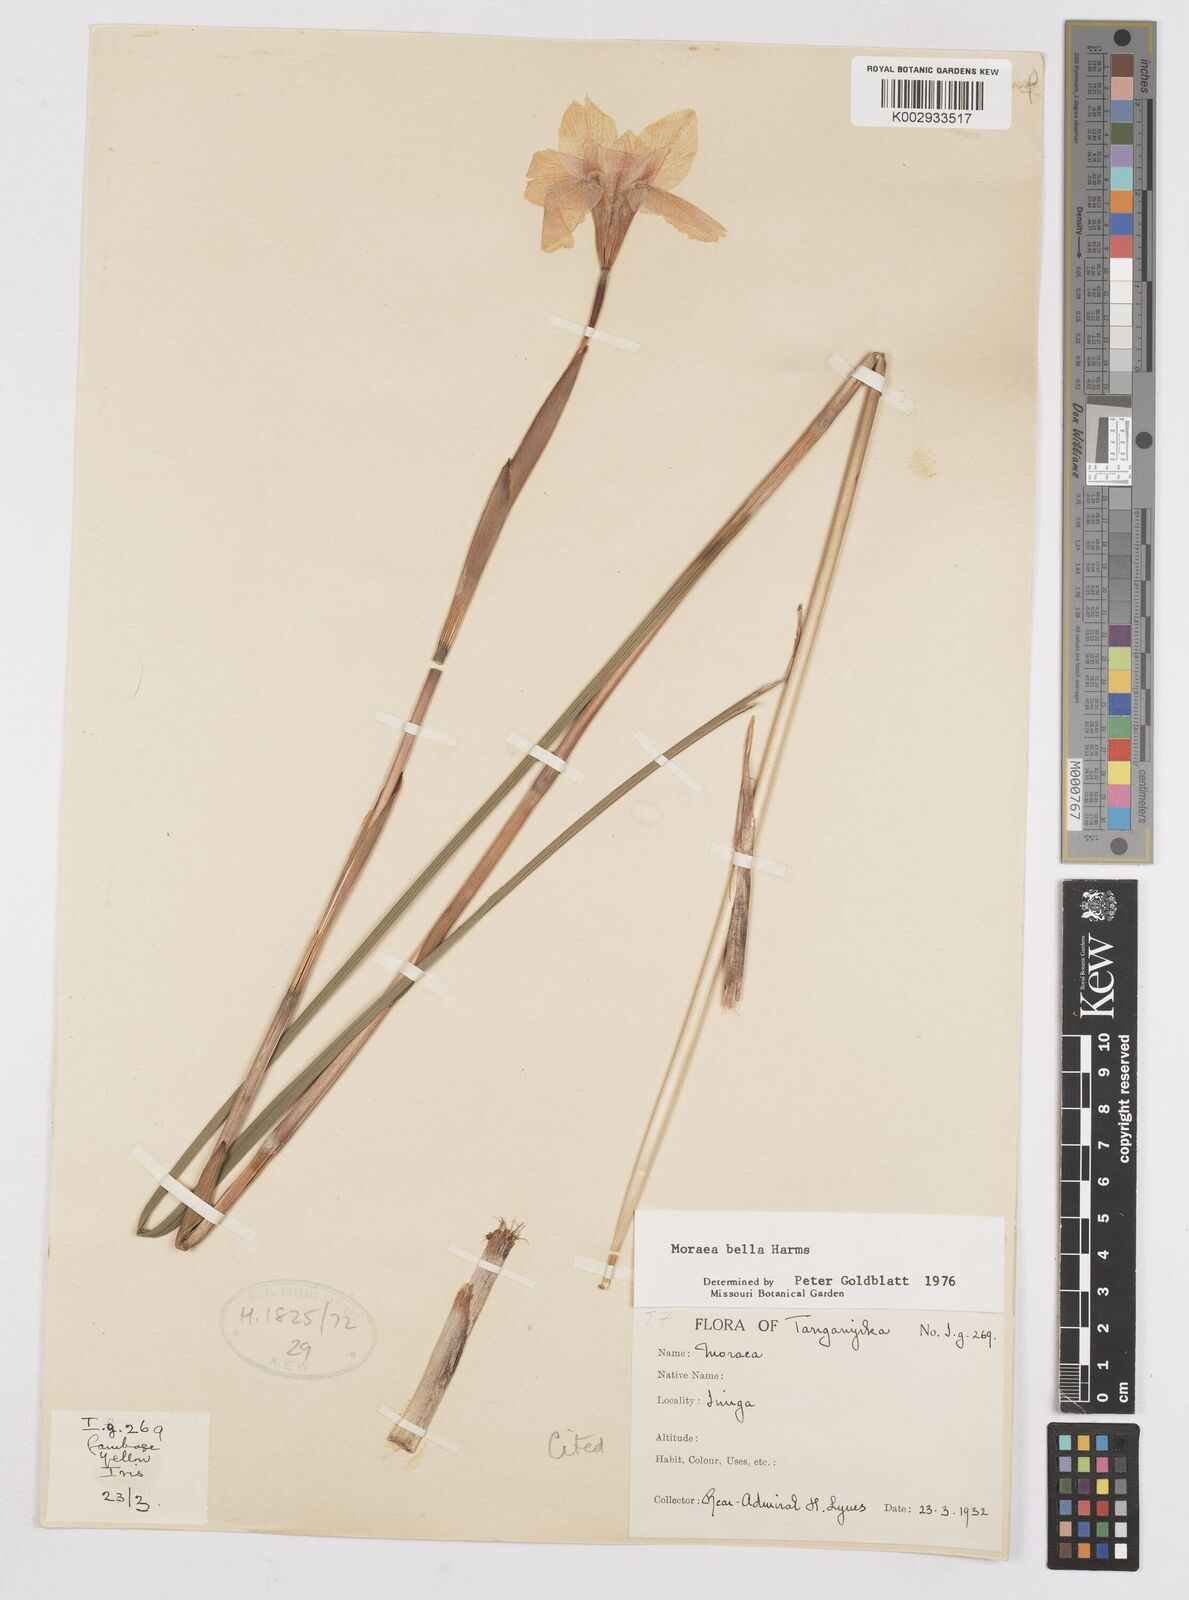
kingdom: Plantae
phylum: Tracheophyta
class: Liliopsida
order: Asparagales
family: Iridaceae
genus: Moraea
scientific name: Moraea bella
